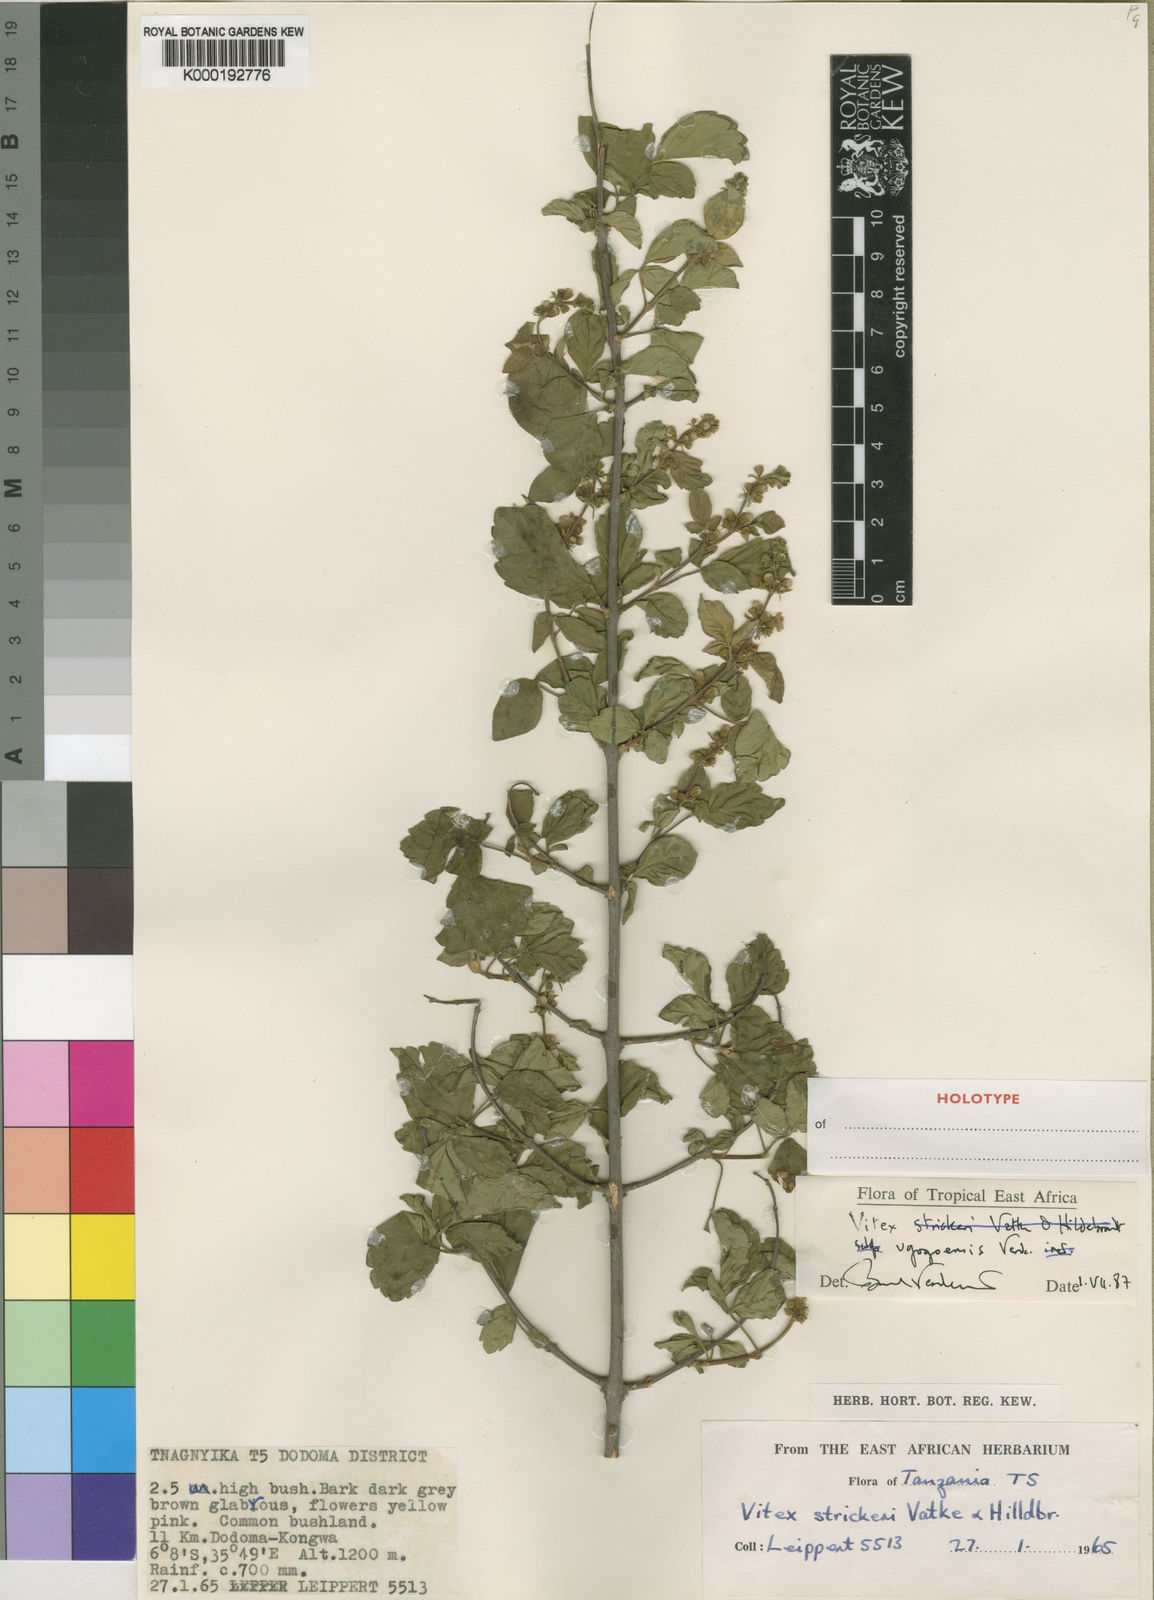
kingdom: Plantae
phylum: Tracheophyta
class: Magnoliopsida
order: Lamiales
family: Lamiaceae
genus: Vitex
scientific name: Vitex ugogoensis
